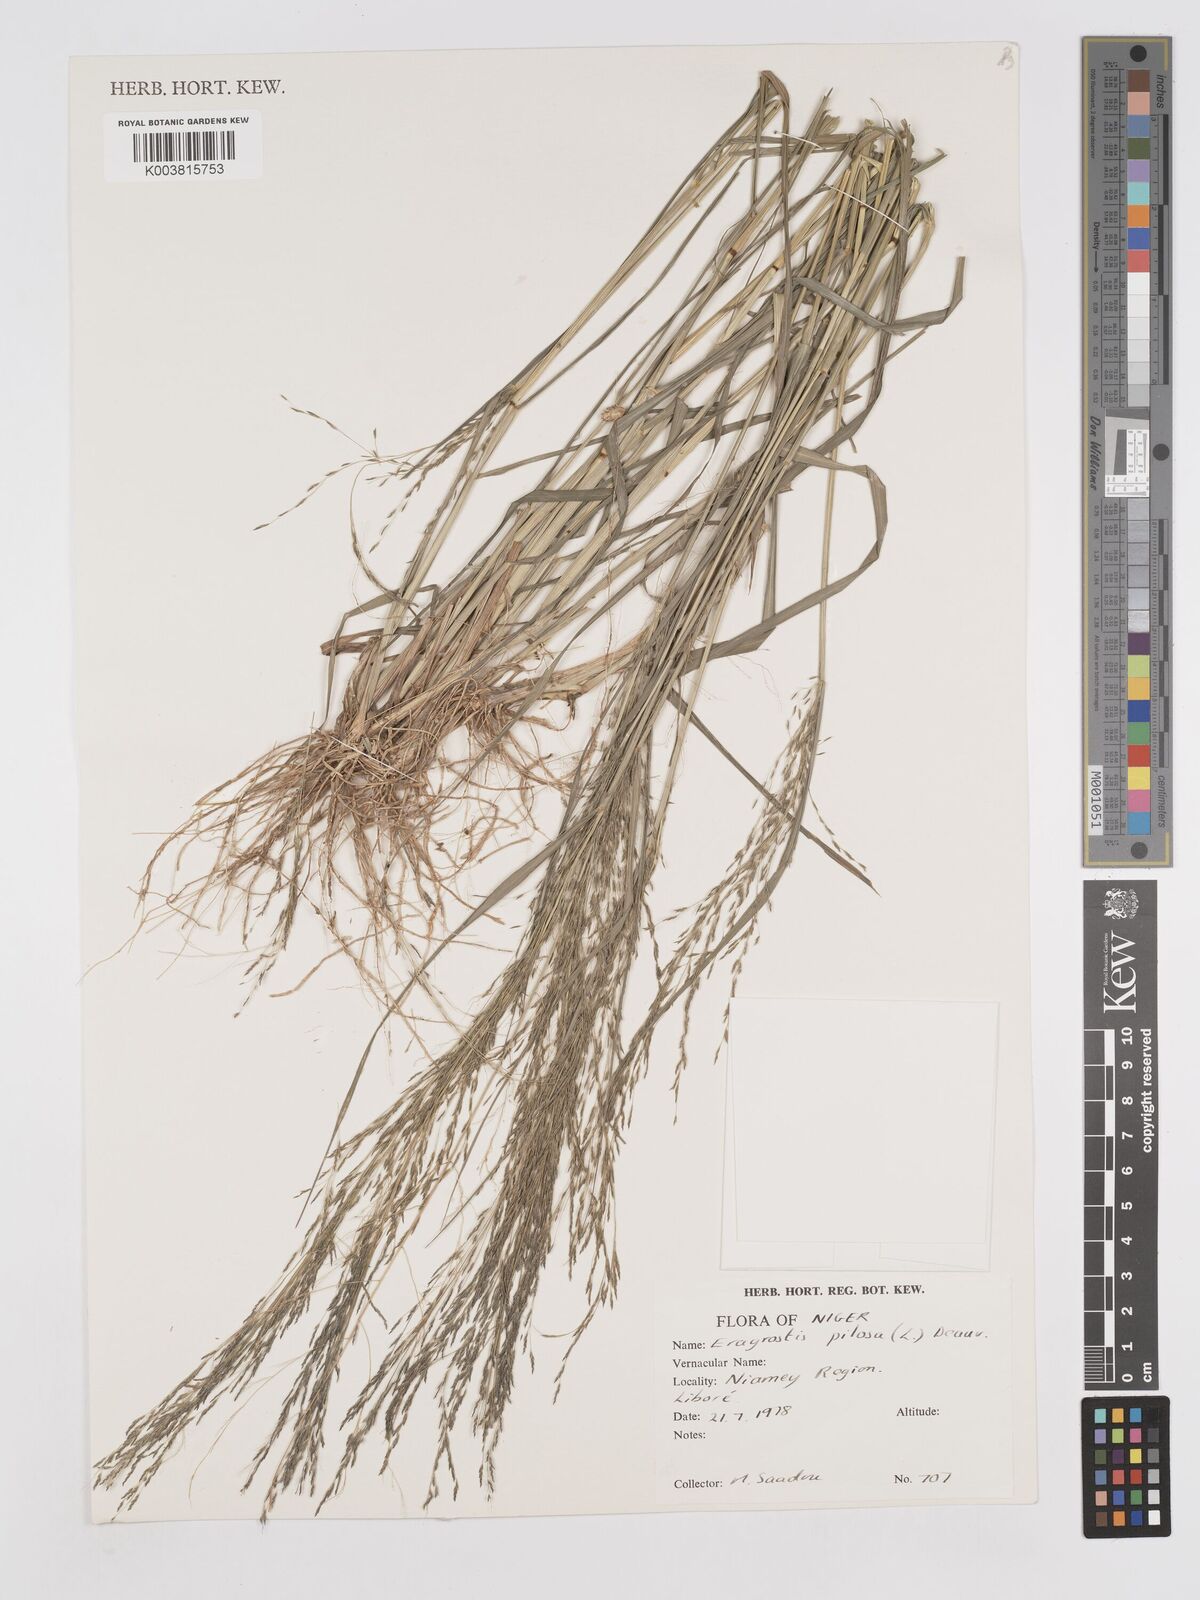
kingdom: Plantae
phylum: Tracheophyta
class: Liliopsida
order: Poales
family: Poaceae
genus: Eragrostis
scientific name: Eragrostis pilosa
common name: Indian lovegrass
